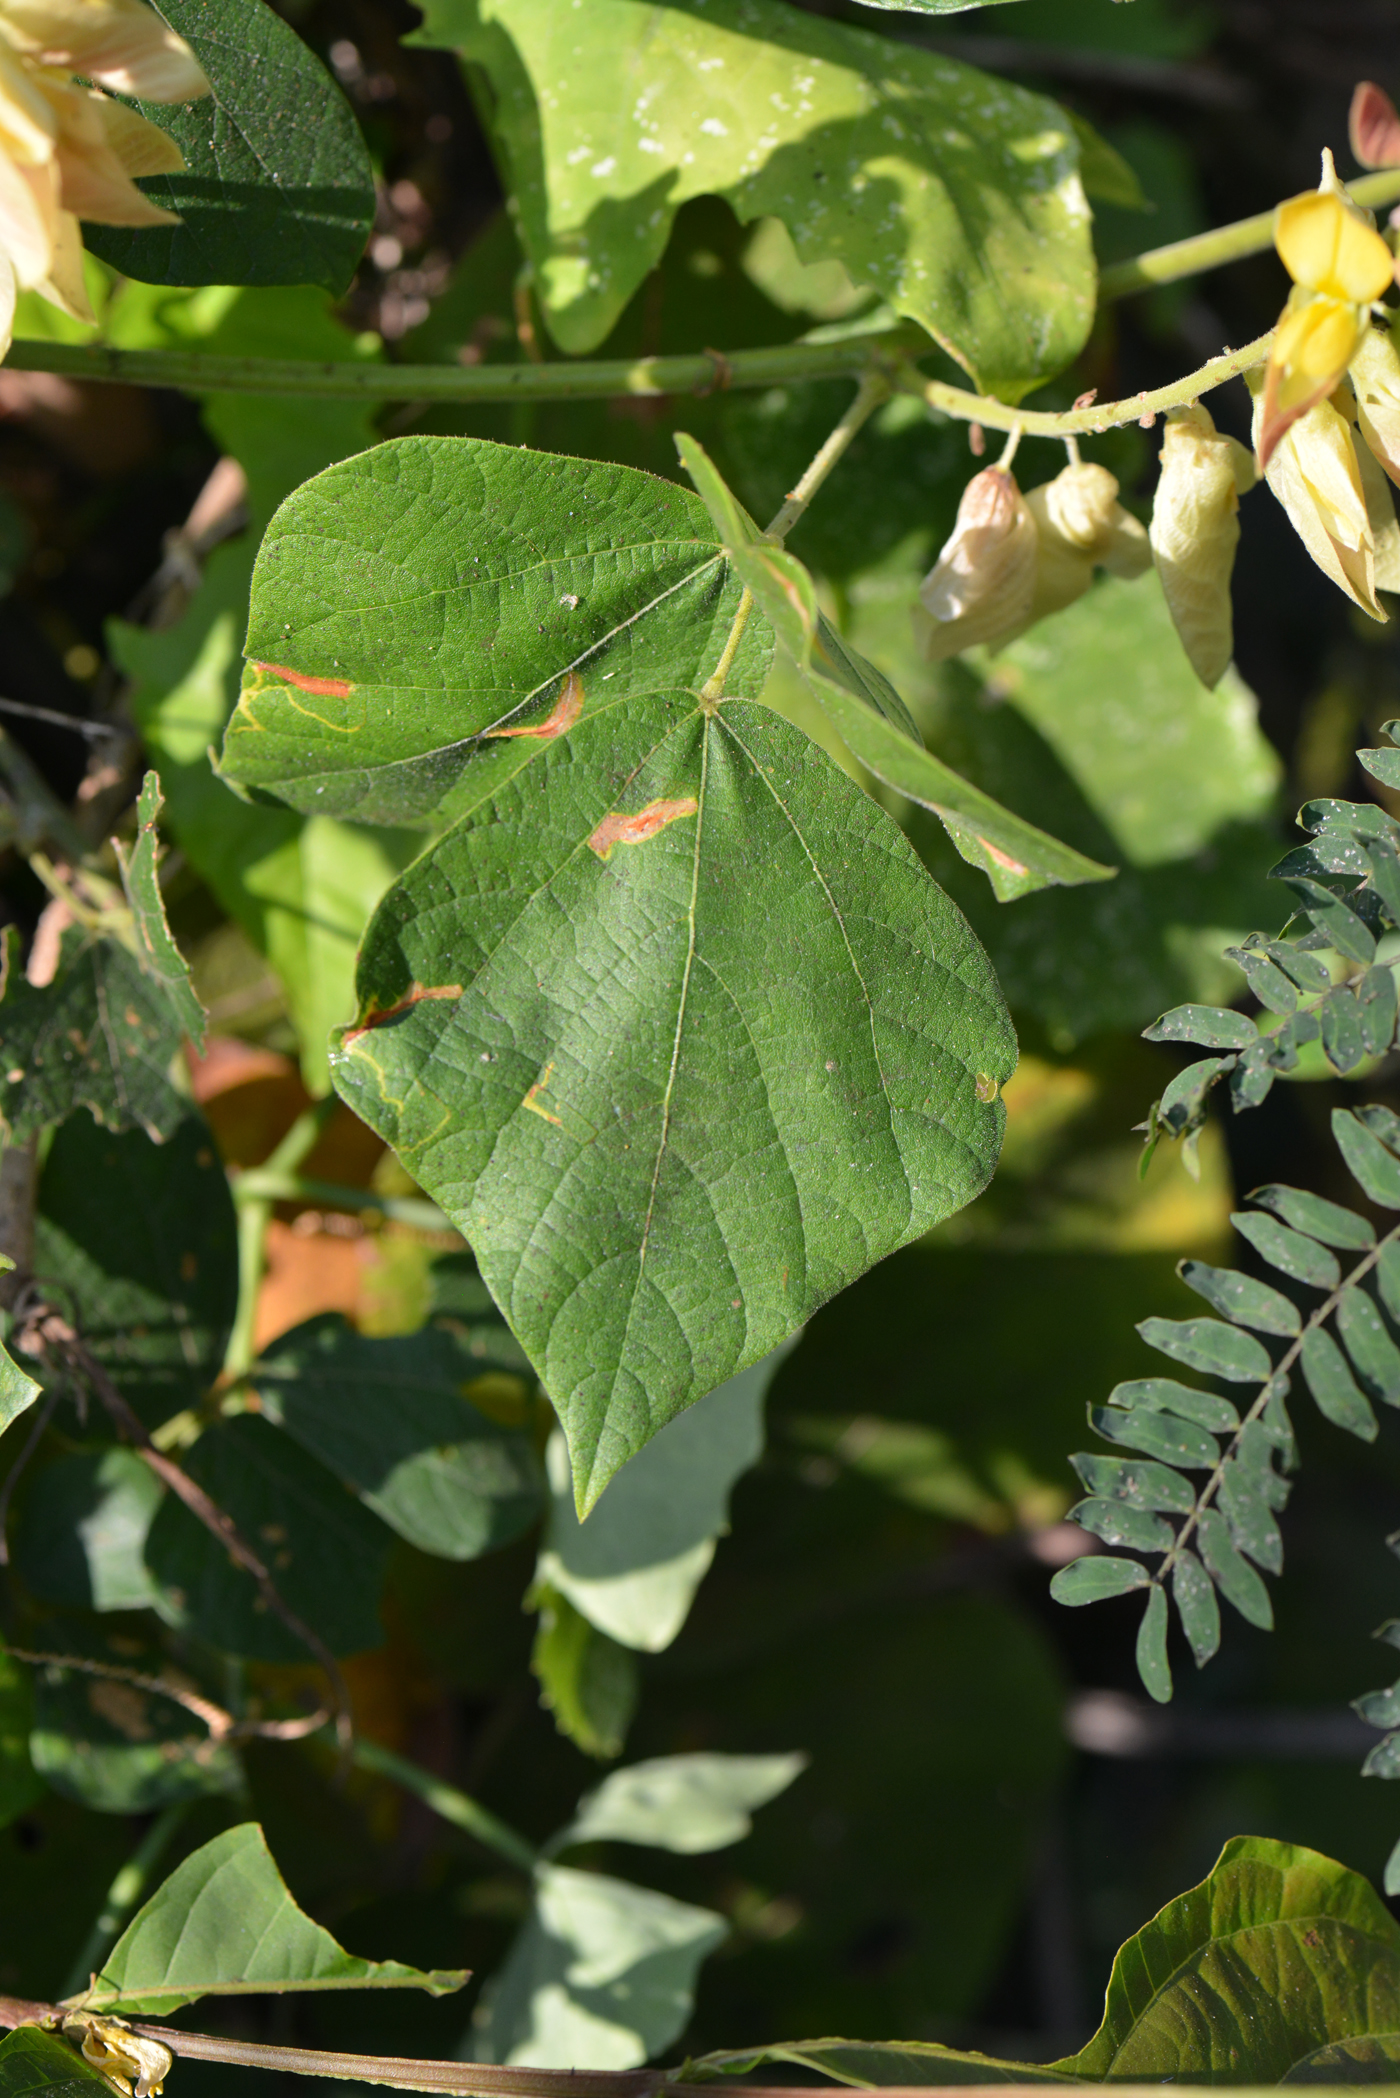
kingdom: Plantae
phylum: Tracheophyta
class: Magnoliopsida
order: Fabales
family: Fabaceae
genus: Paracalyx
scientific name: Paracalyx scariosus
